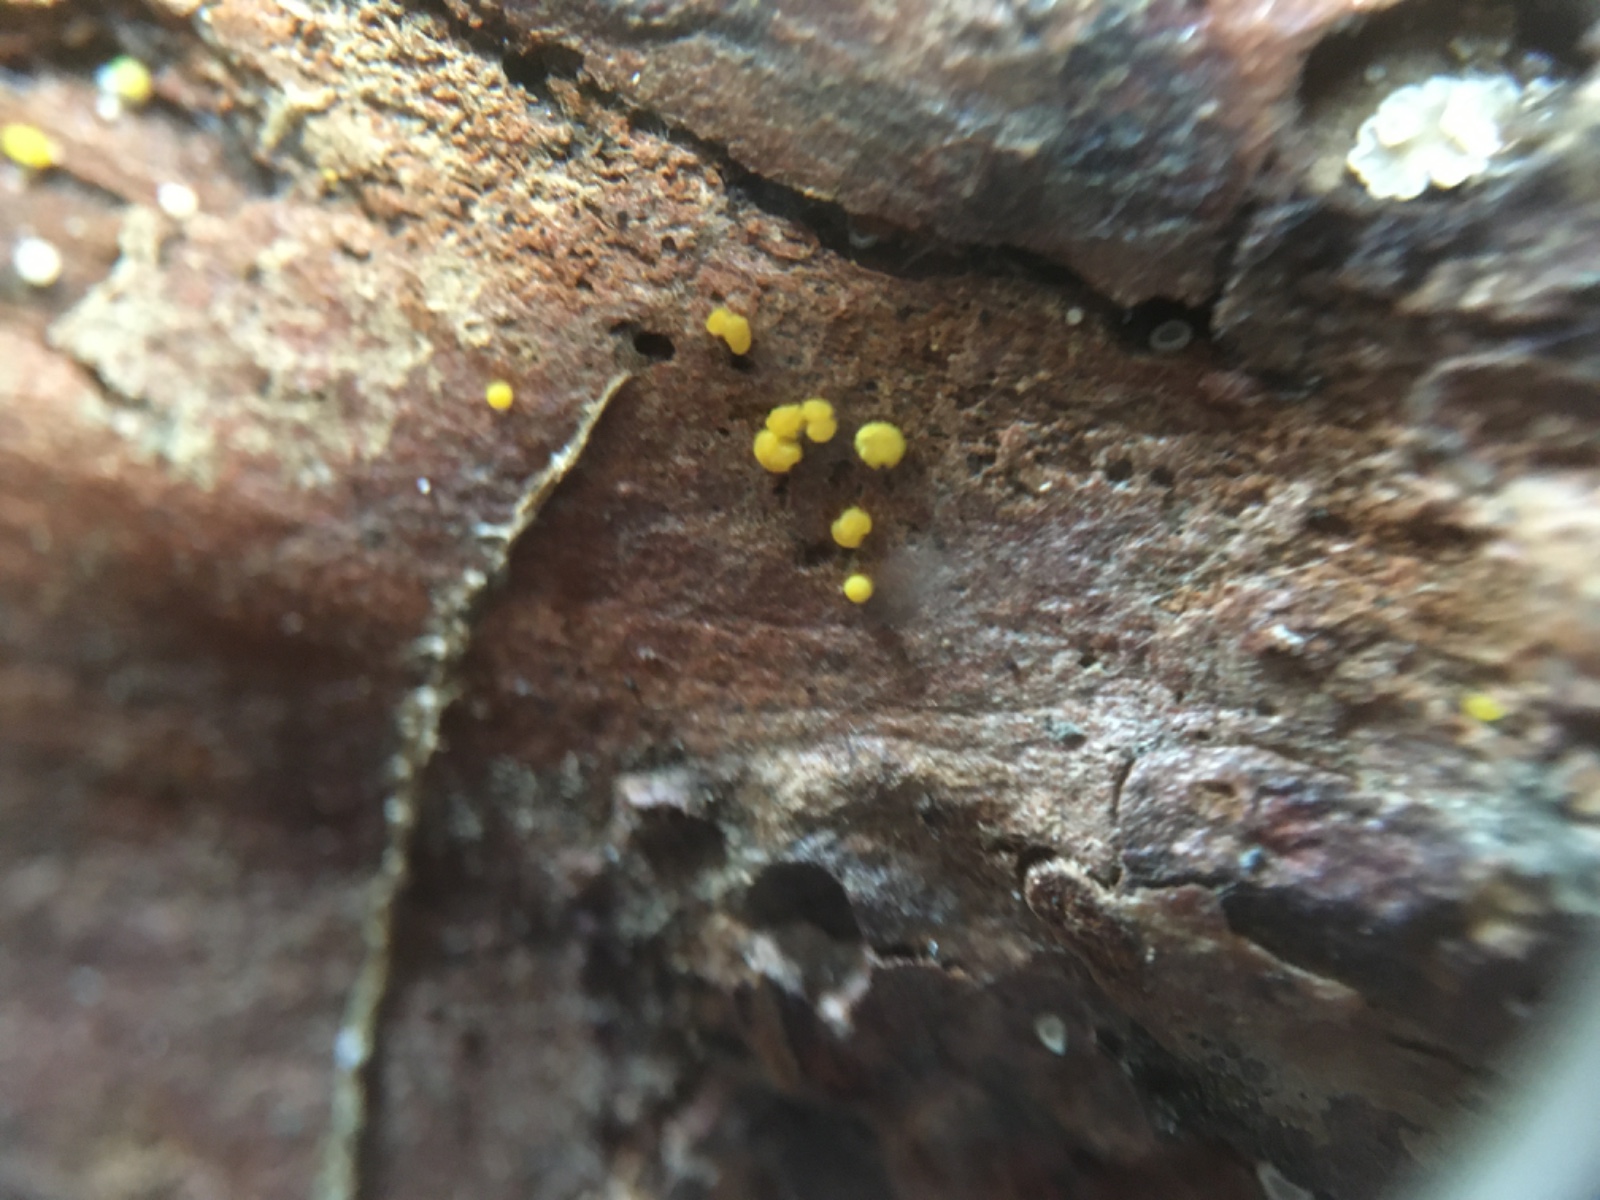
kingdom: Fungi
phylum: Ascomycota
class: Leotiomycetes
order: Helotiales
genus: Lemalis
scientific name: Lemalis aurea
